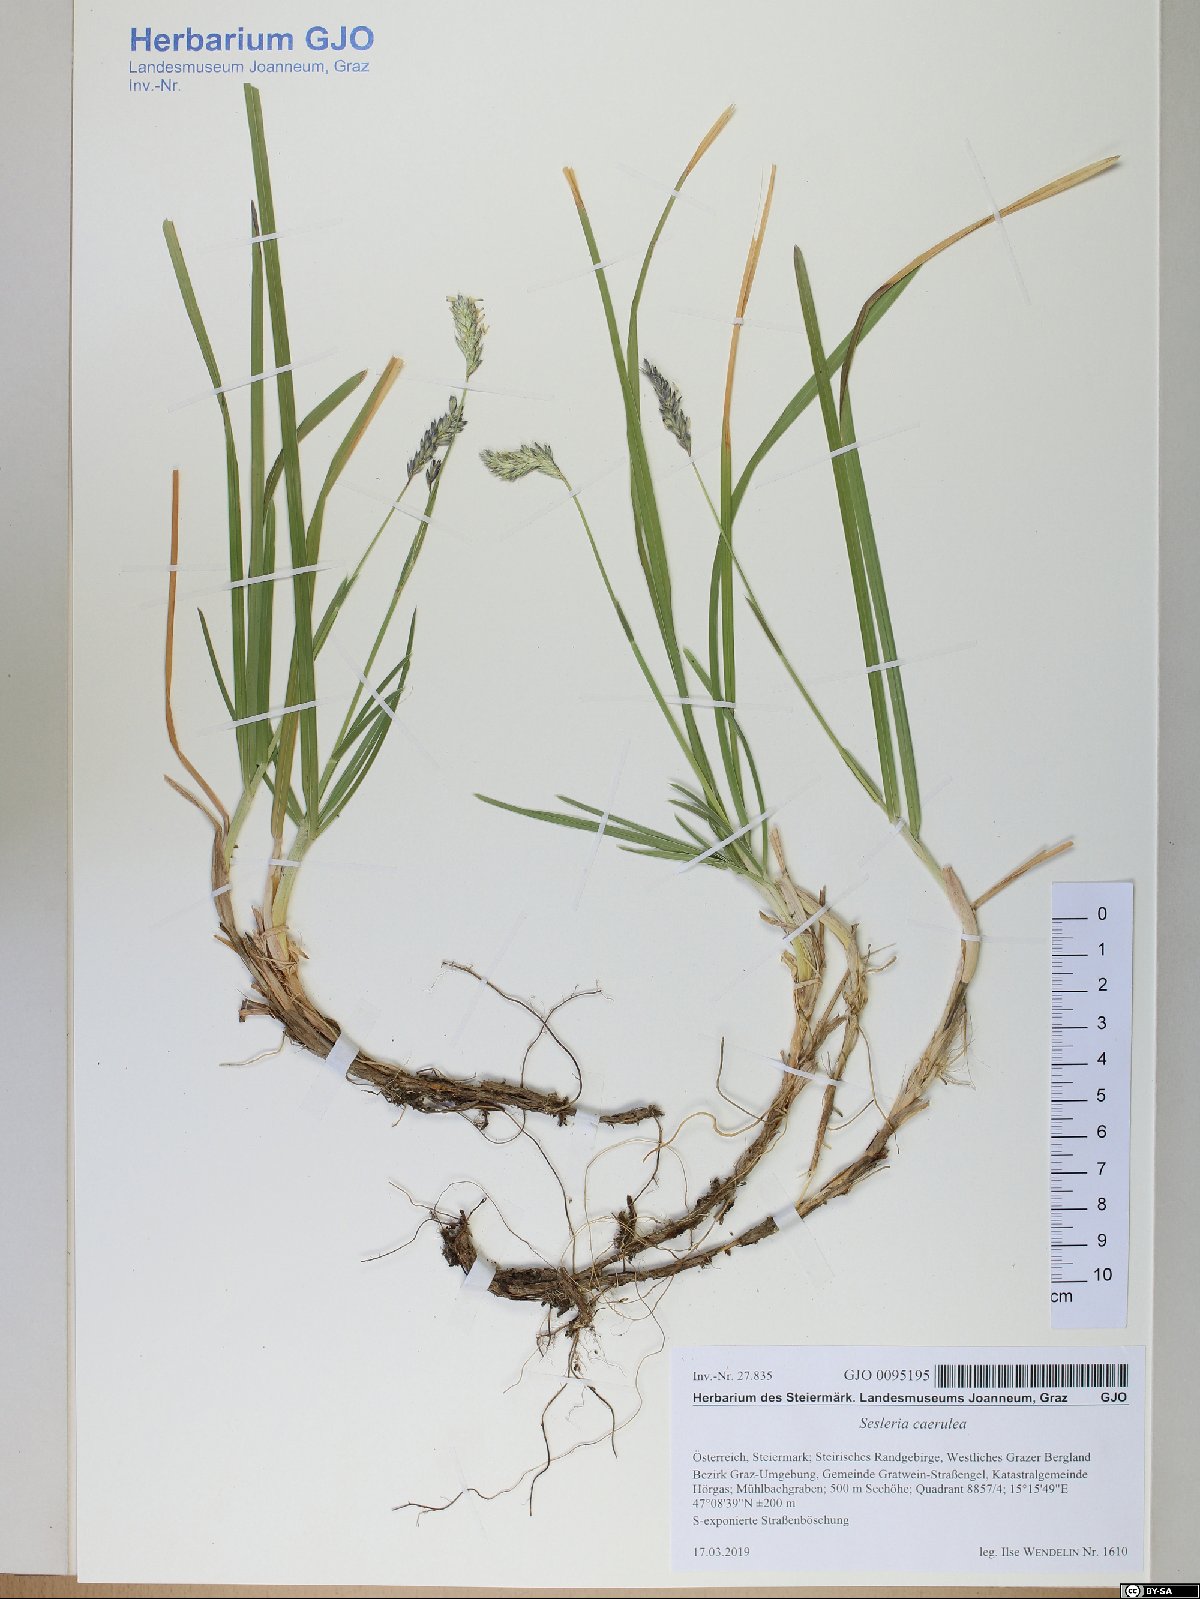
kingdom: Plantae
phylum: Tracheophyta
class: Liliopsida
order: Poales
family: Poaceae
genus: Sesleria
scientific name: Sesleria caerulea
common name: Blue moor-grass
